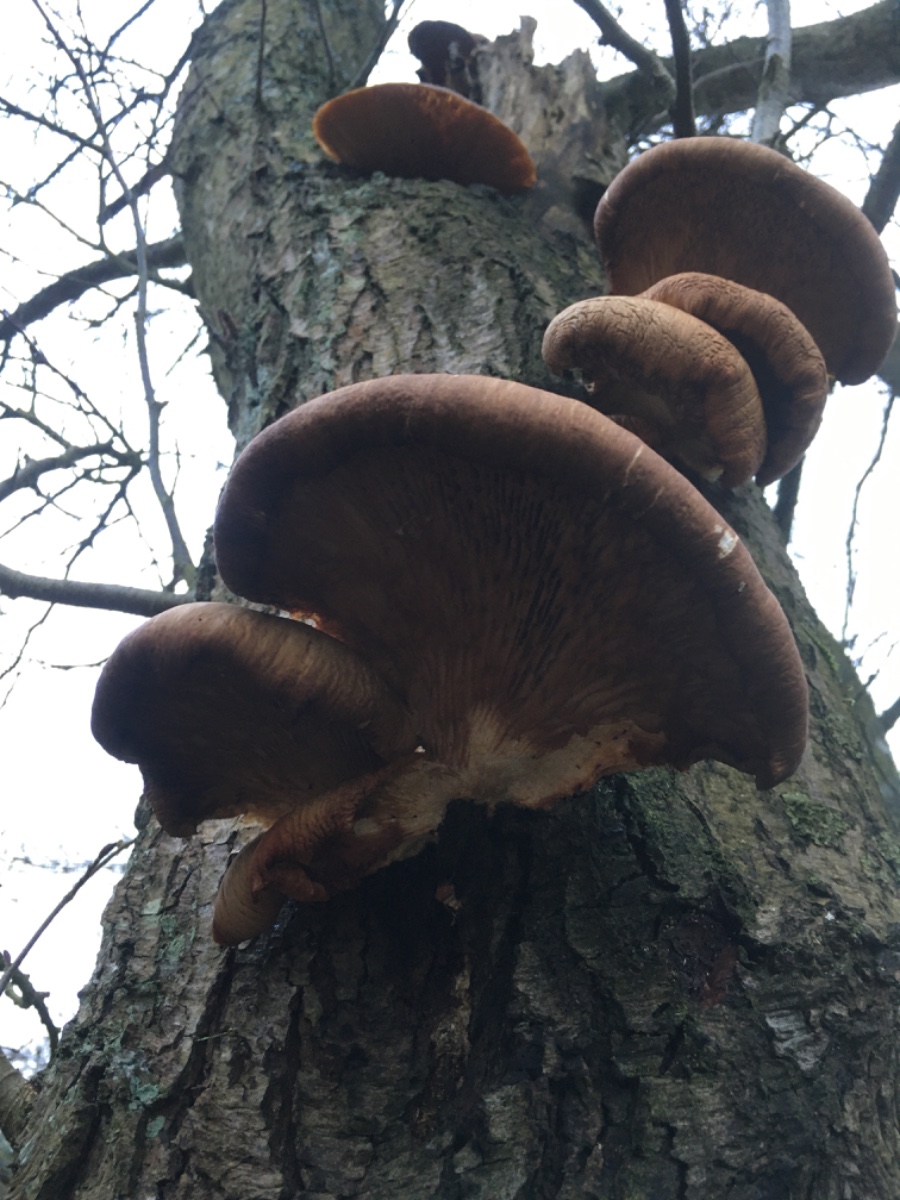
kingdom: Fungi
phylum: Basidiomycota
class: Agaricomycetes
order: Agaricales
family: Pleurotaceae
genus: Pleurotus
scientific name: Pleurotus ostreatus
